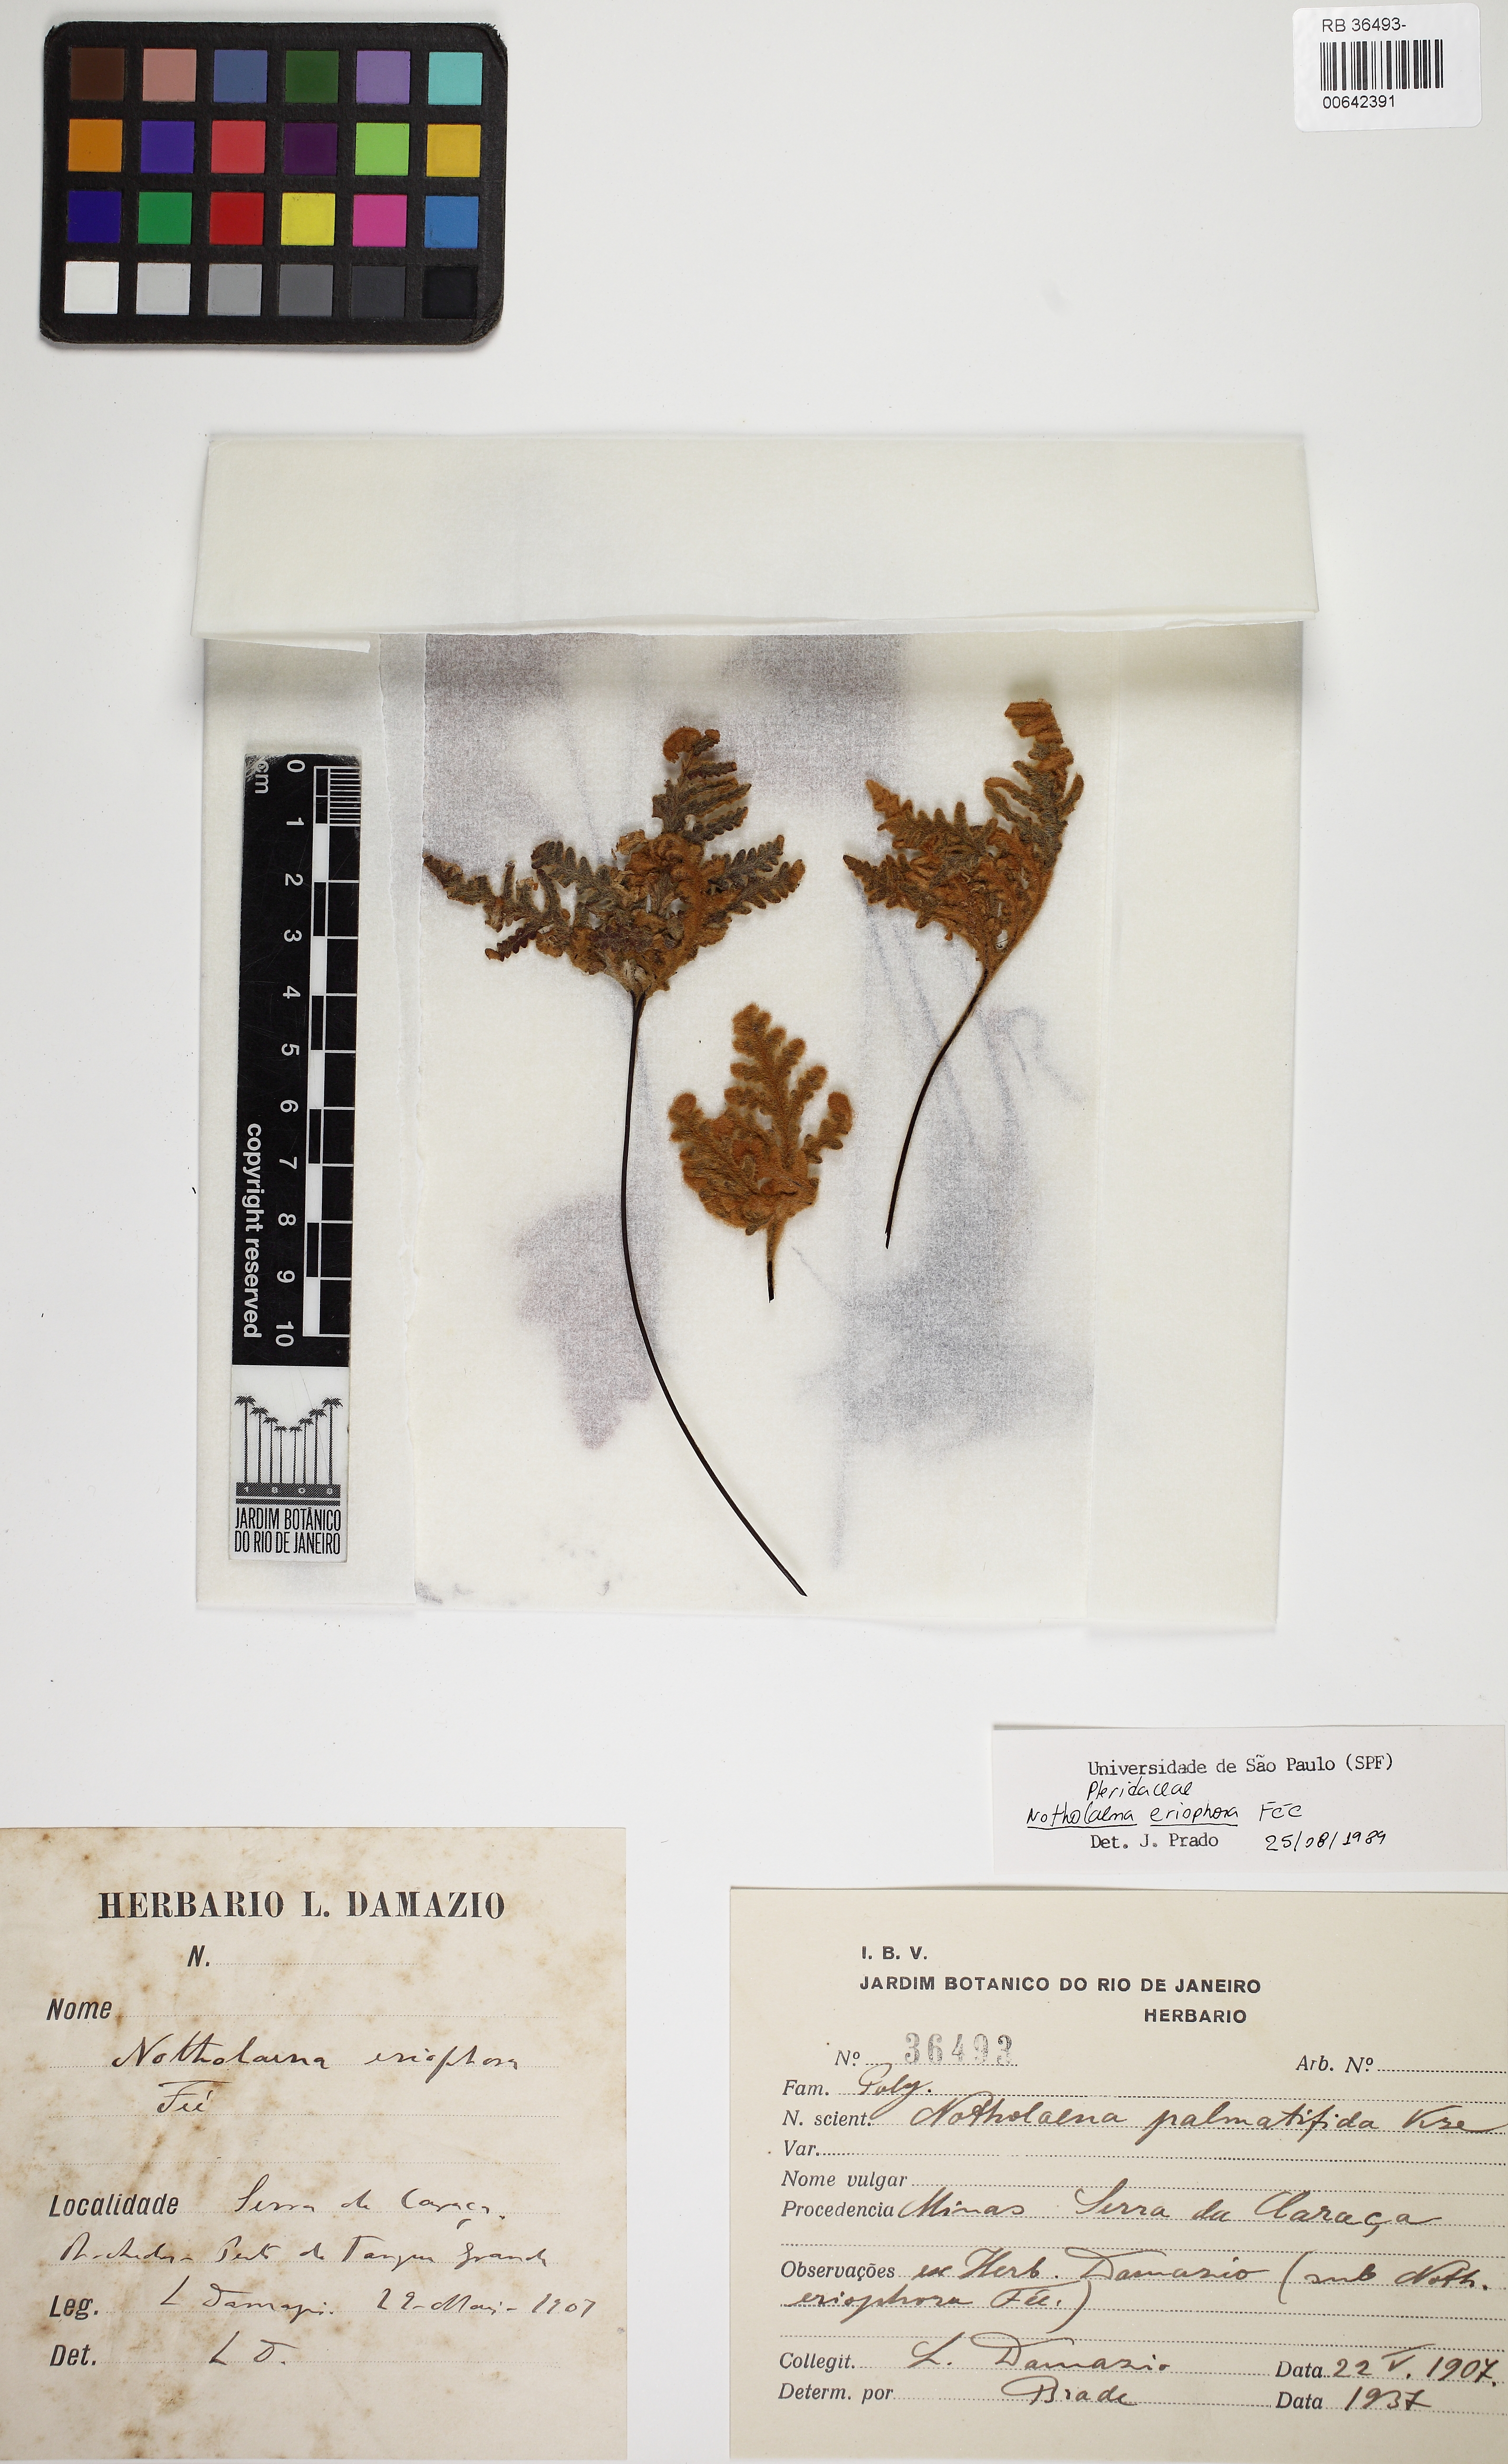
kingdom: Plantae
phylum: Tracheophyta
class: Polypodiopsida
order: Polypodiales
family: Pteridaceae
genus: Mineirella
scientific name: Mineirella goyazensis
